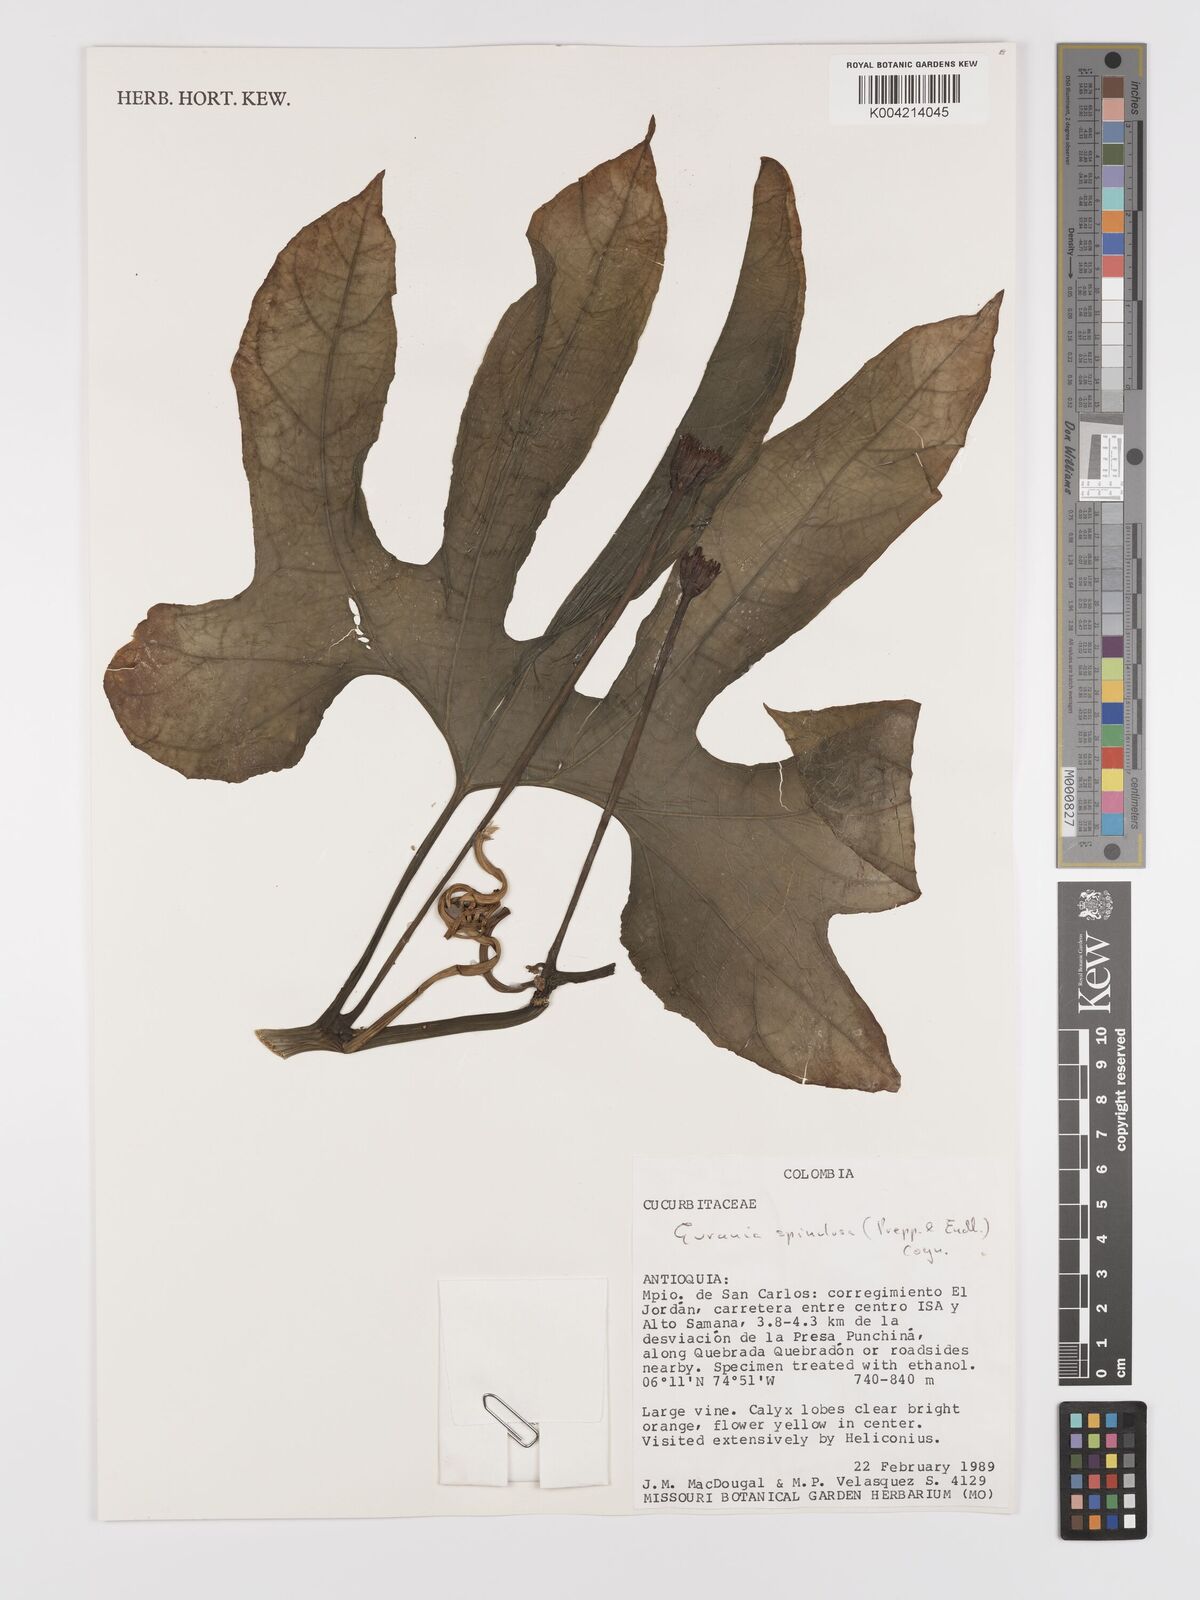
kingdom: Plantae
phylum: Tracheophyta
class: Magnoliopsida
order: Cucurbitales
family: Cucurbitaceae
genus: Gurania
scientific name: Gurania lobata
